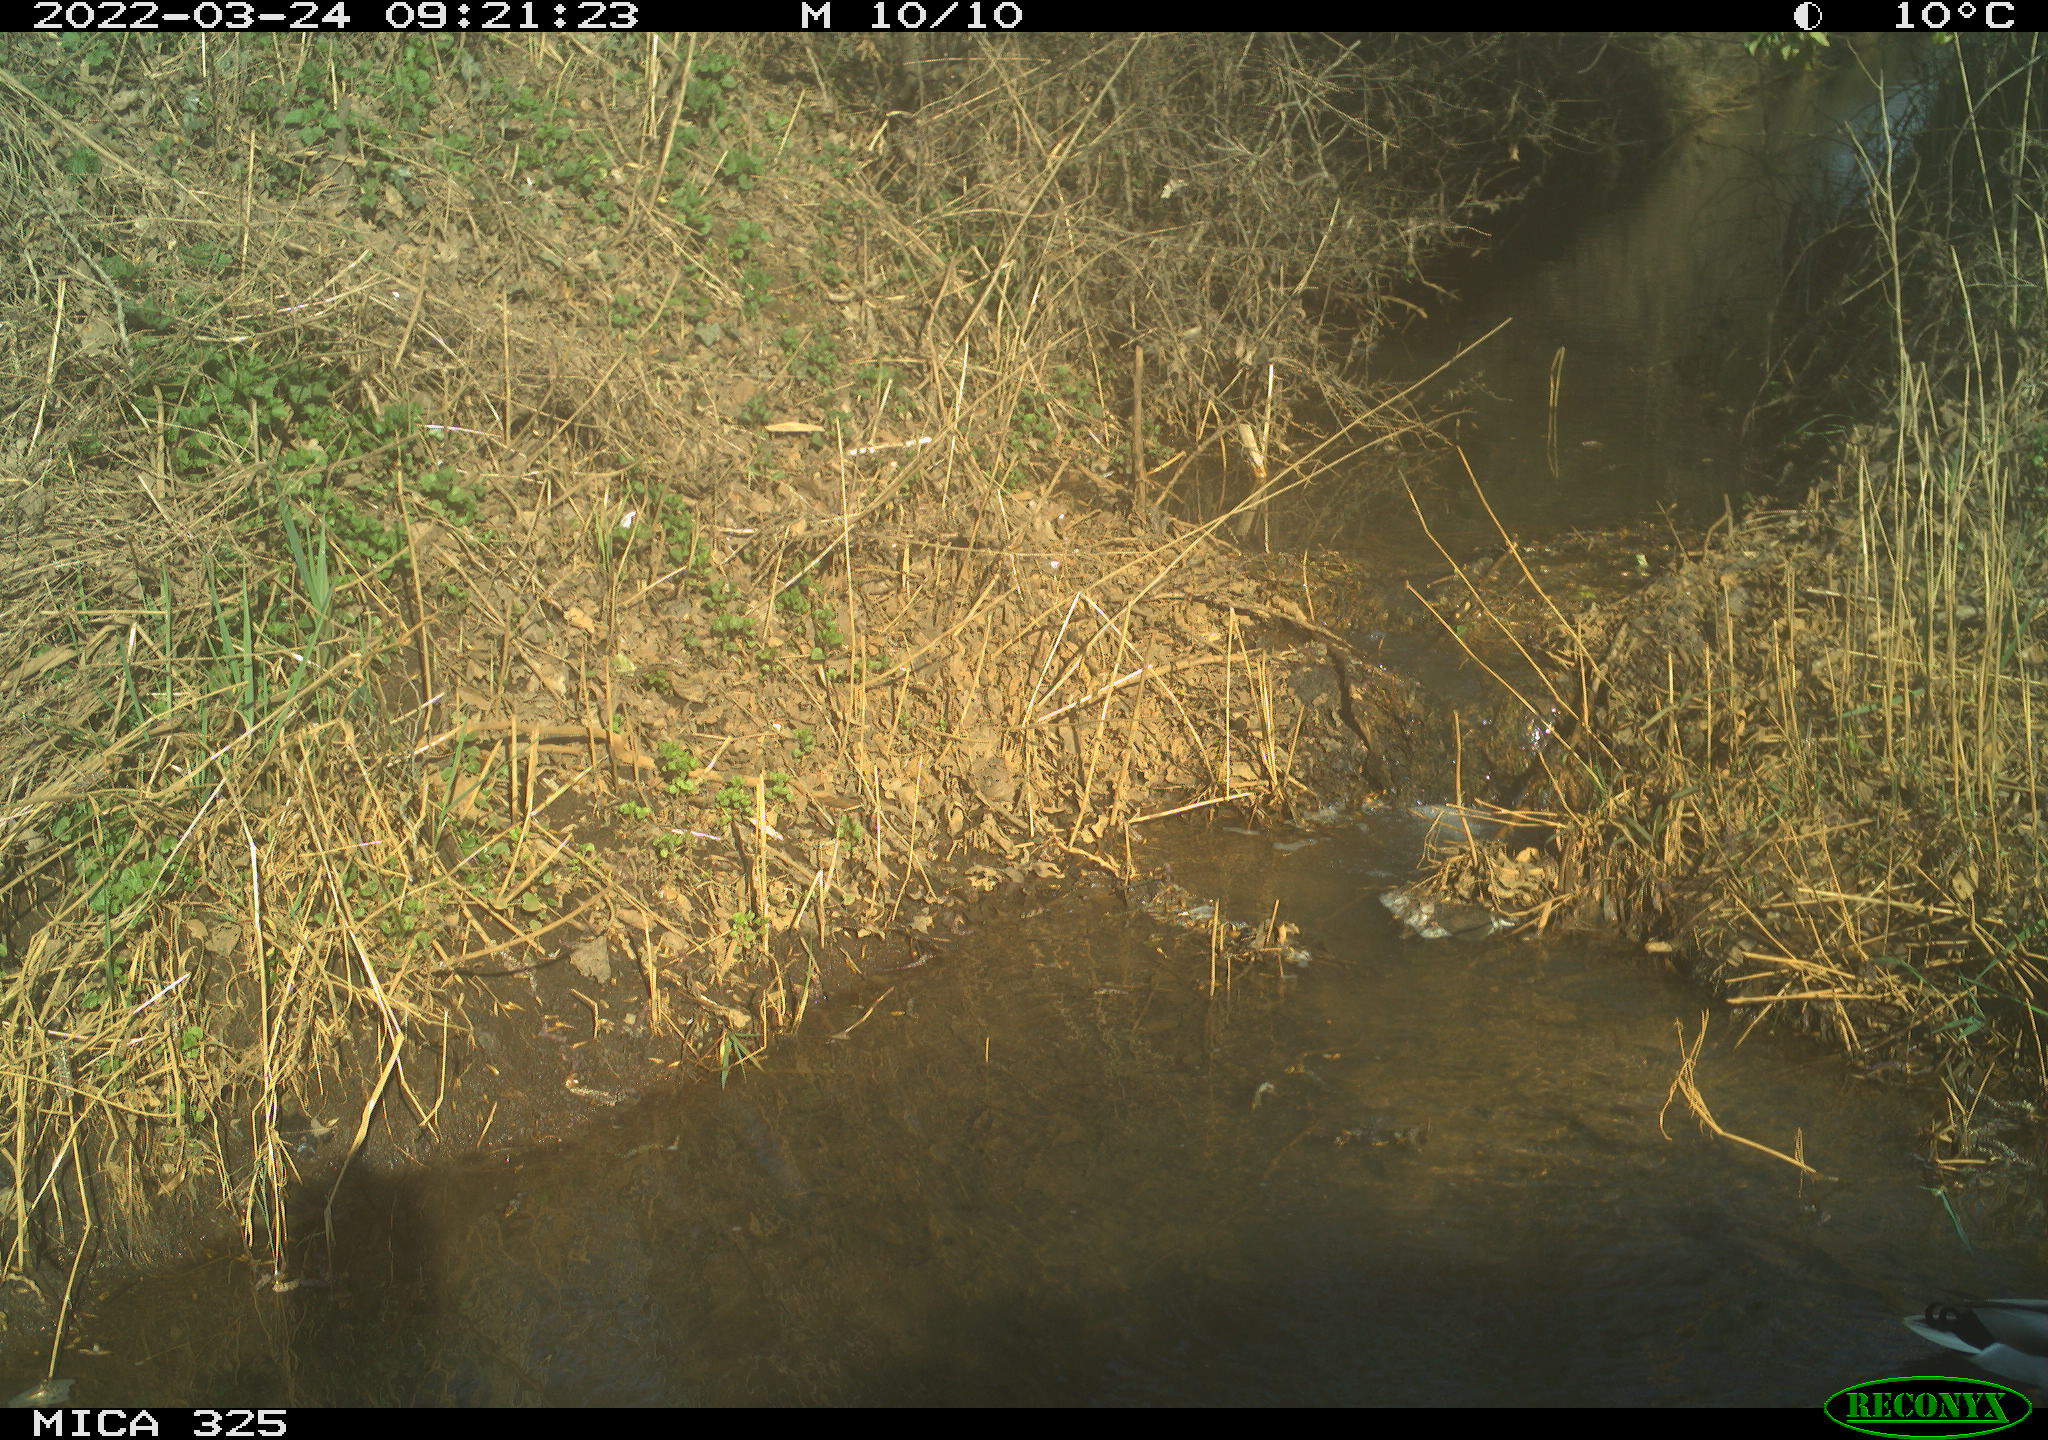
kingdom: Animalia
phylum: Chordata
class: Aves
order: Anseriformes
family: Anatidae
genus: Anas
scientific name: Anas platyrhynchos
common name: Mallard
